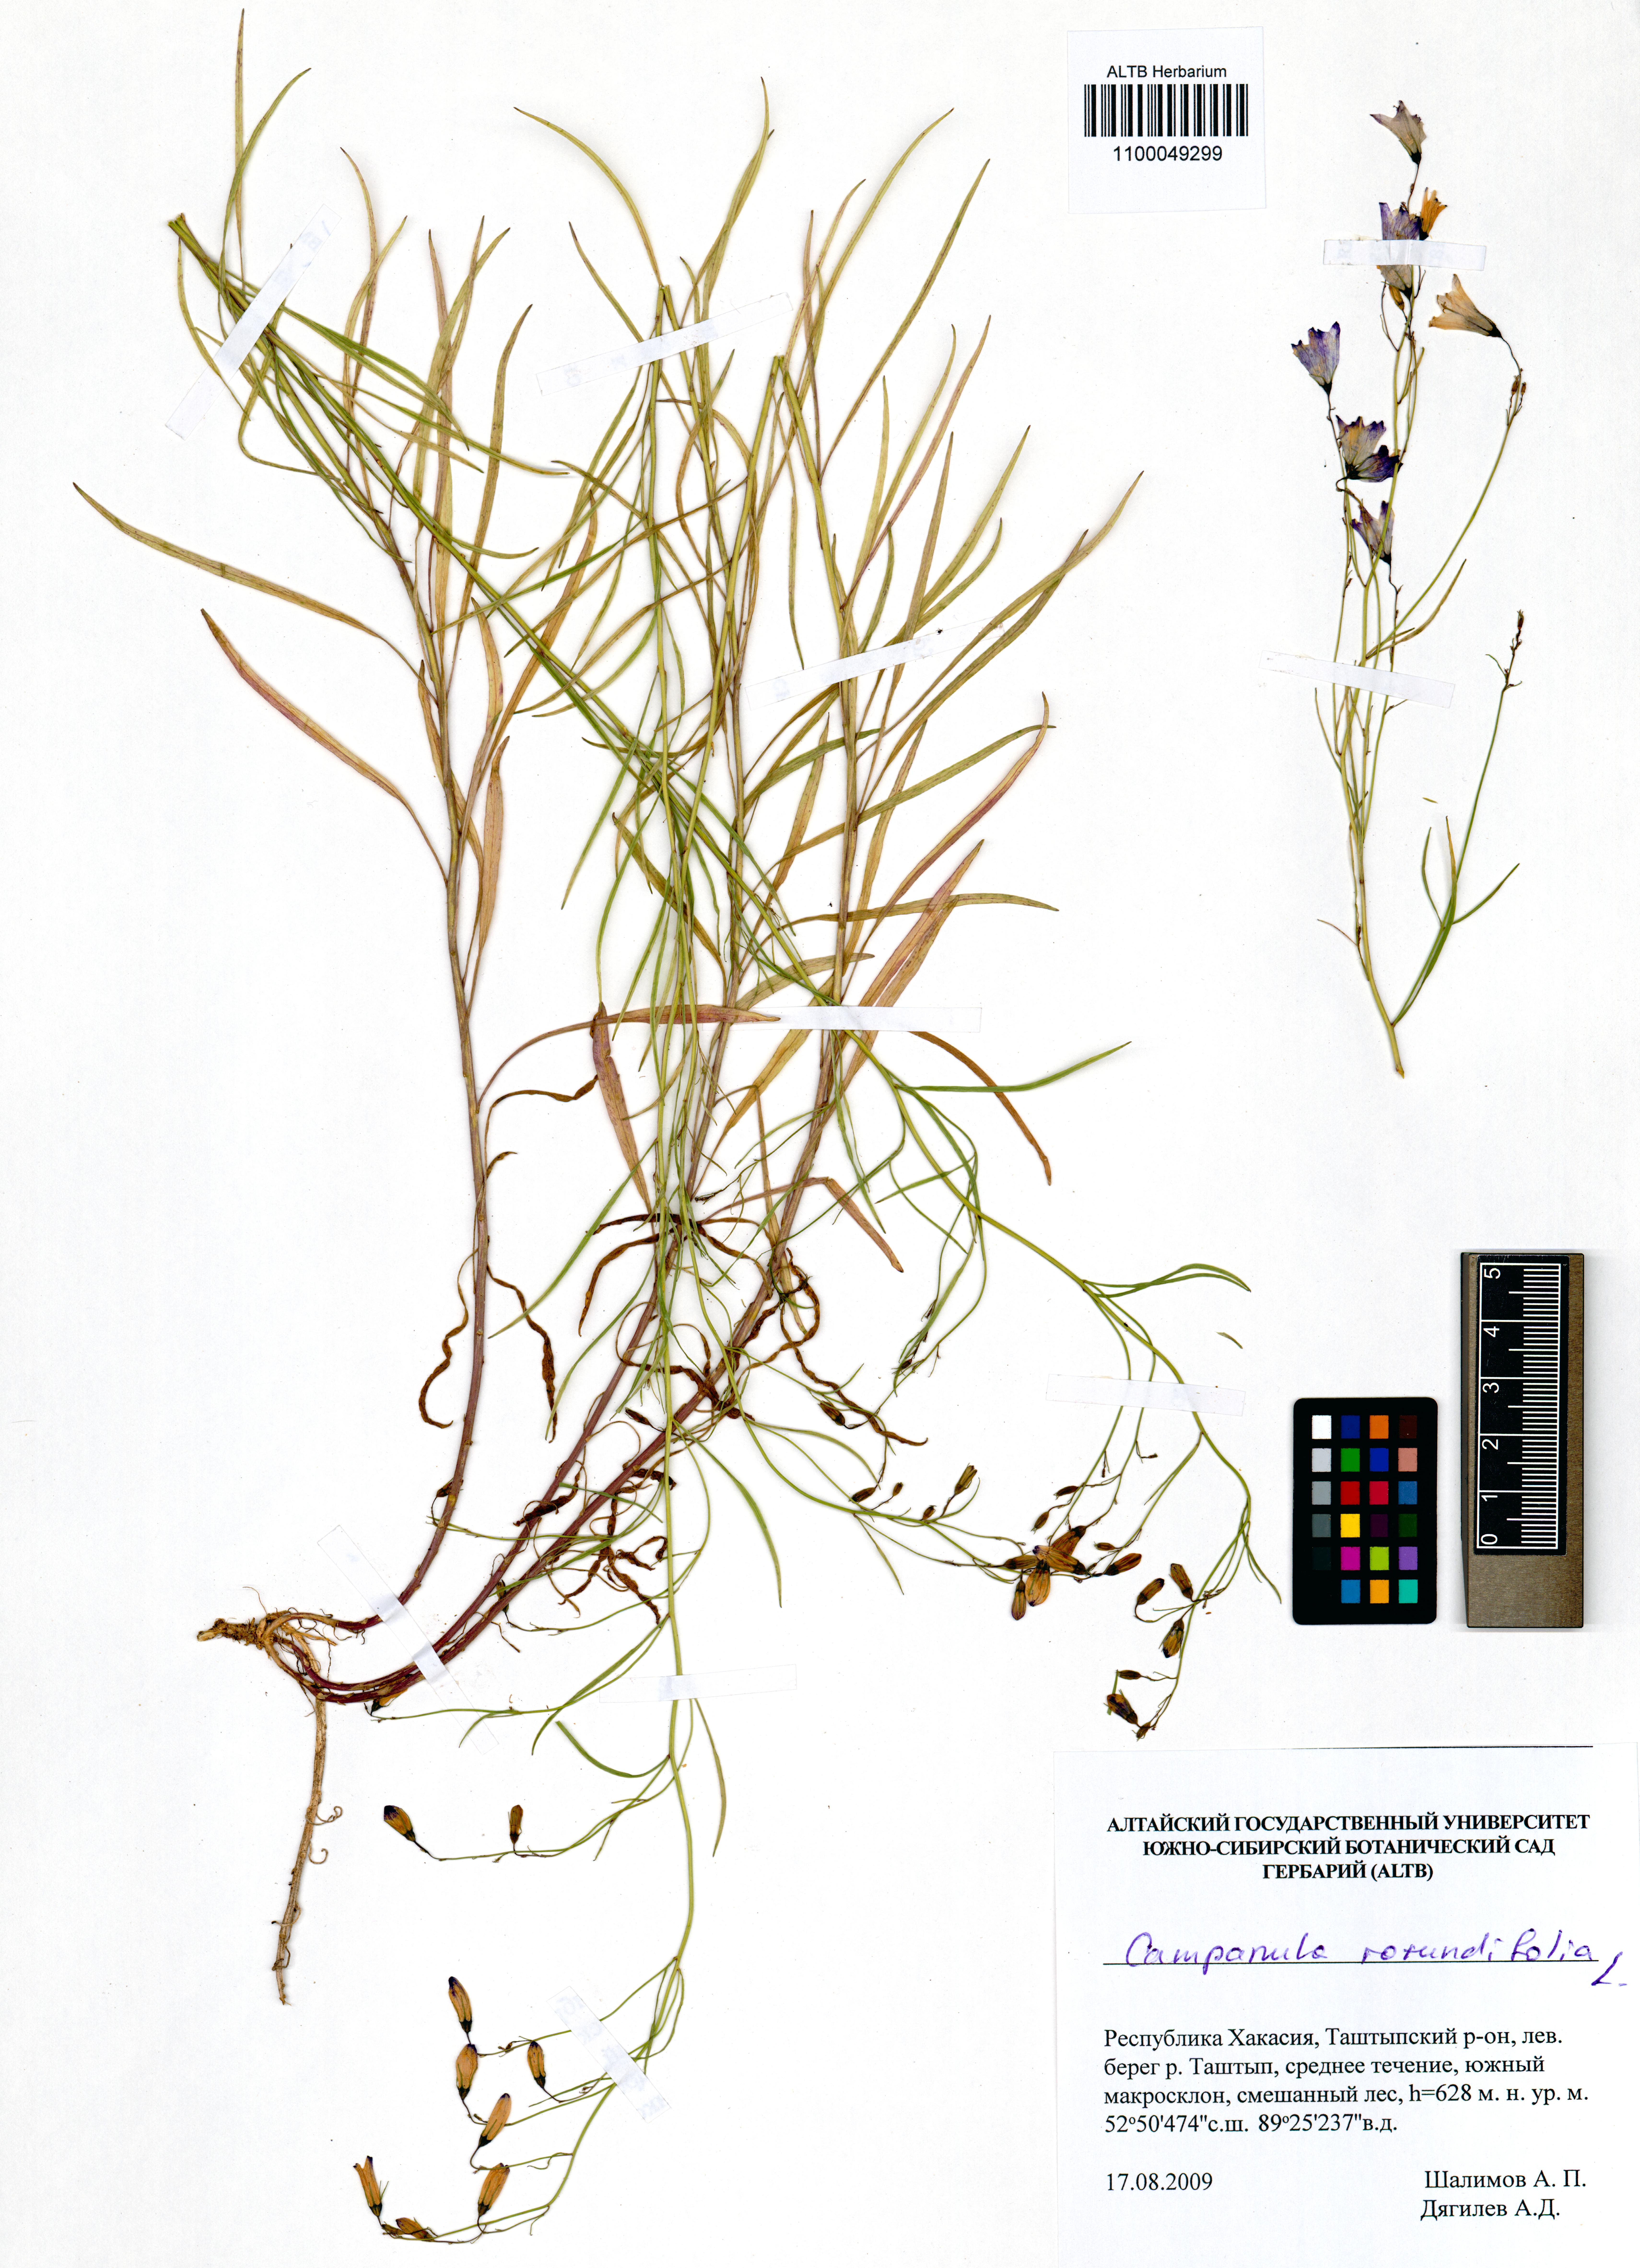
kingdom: Plantae
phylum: Tracheophyta
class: Magnoliopsida
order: Asterales
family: Campanulaceae
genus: Campanula
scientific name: Campanula rotundifolia
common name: Harebell
